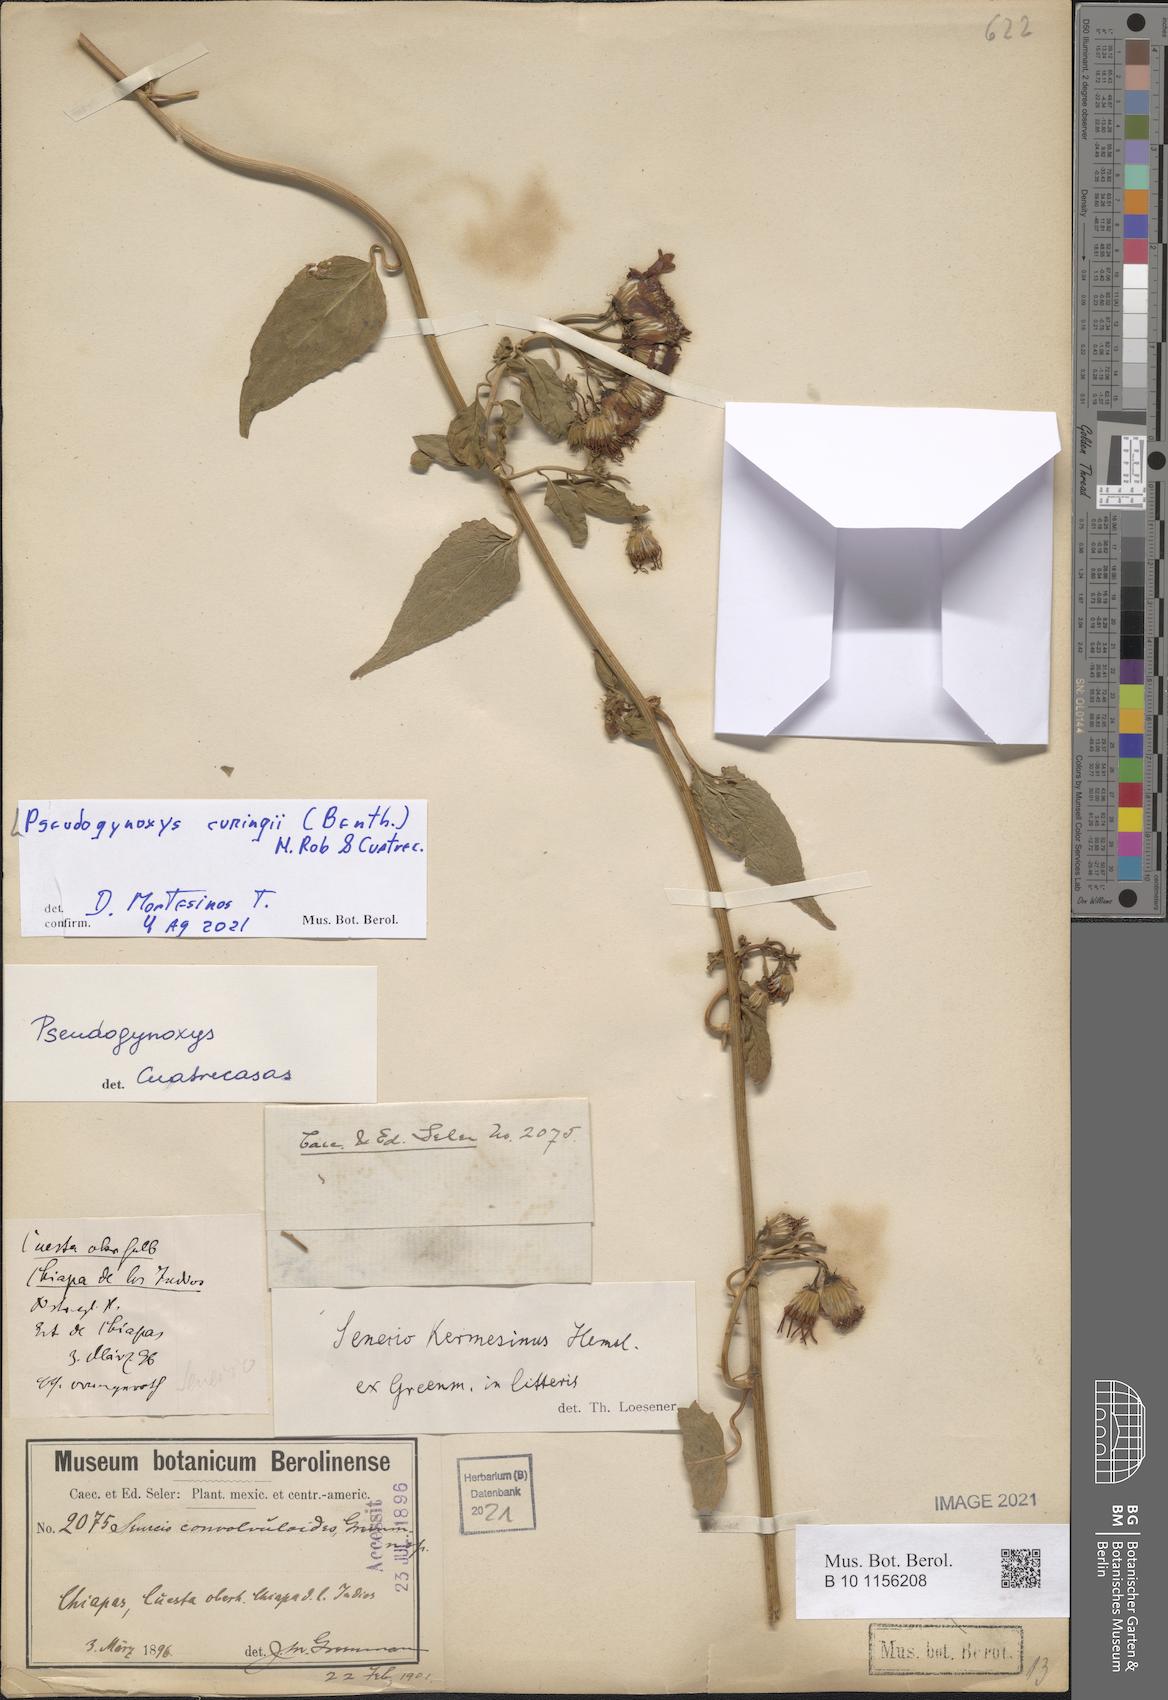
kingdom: Plantae
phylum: Tracheophyta
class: Magnoliopsida
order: Asterales
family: Asteraceae
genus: Pseudogynoxys
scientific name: Pseudogynoxys cumingii
